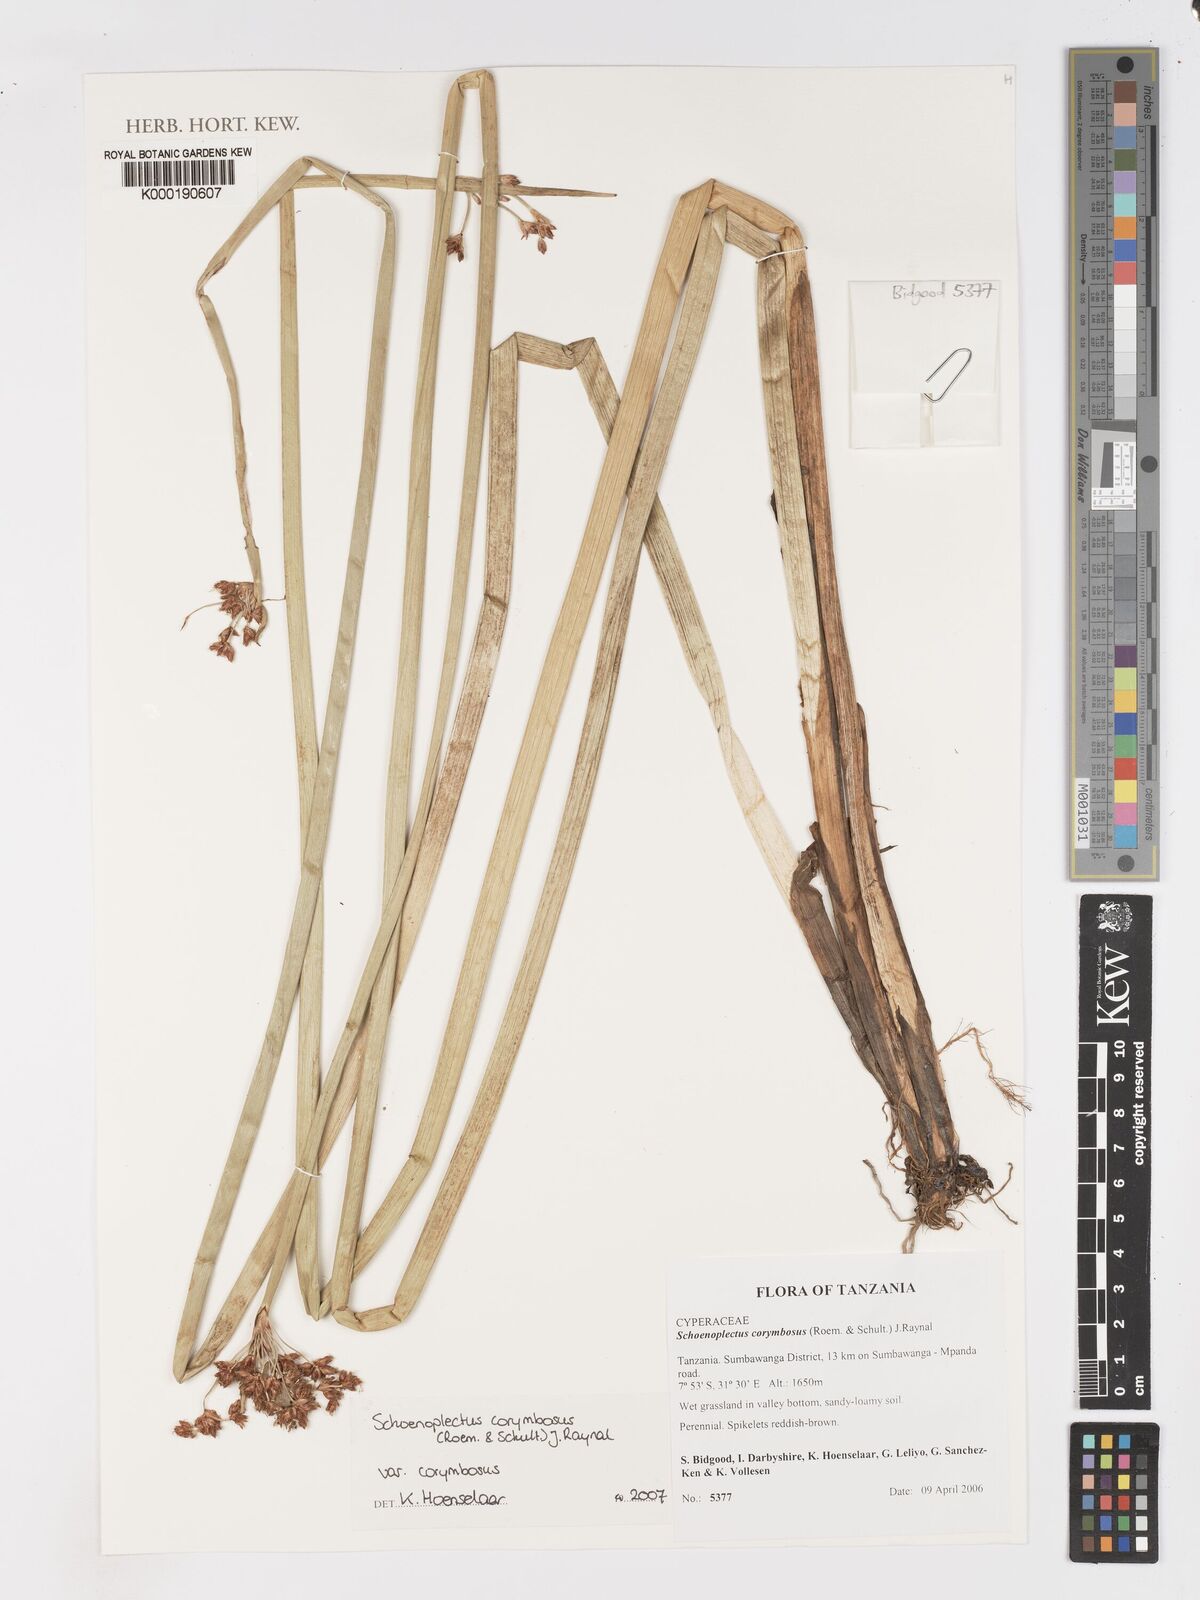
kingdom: Plantae
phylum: Tracheophyta
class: Liliopsida
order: Poales
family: Cyperaceae
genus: Schoenoplectiella
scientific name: Schoenoplectiella corymbosa
